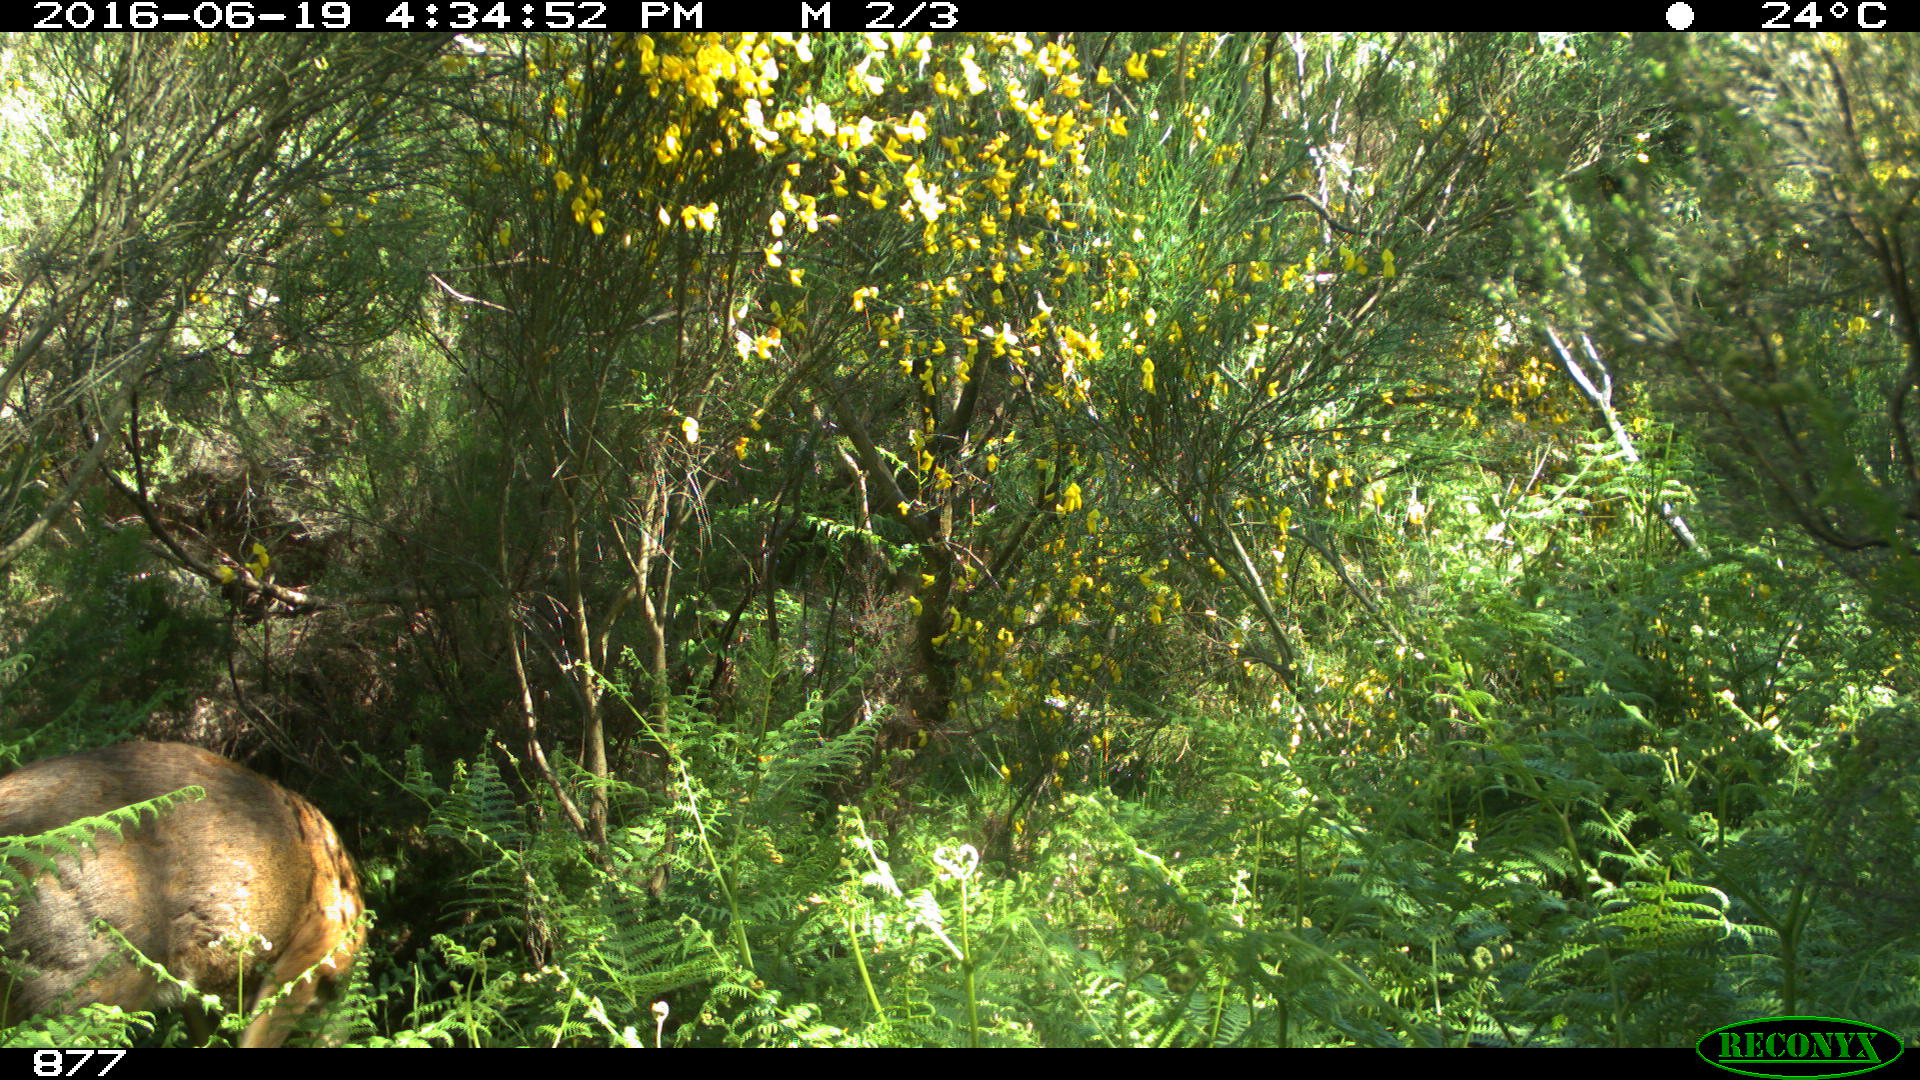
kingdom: Animalia
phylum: Chordata
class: Mammalia
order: Artiodactyla
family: Cervidae
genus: Capreolus
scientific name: Capreolus capreolus
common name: Western roe deer
